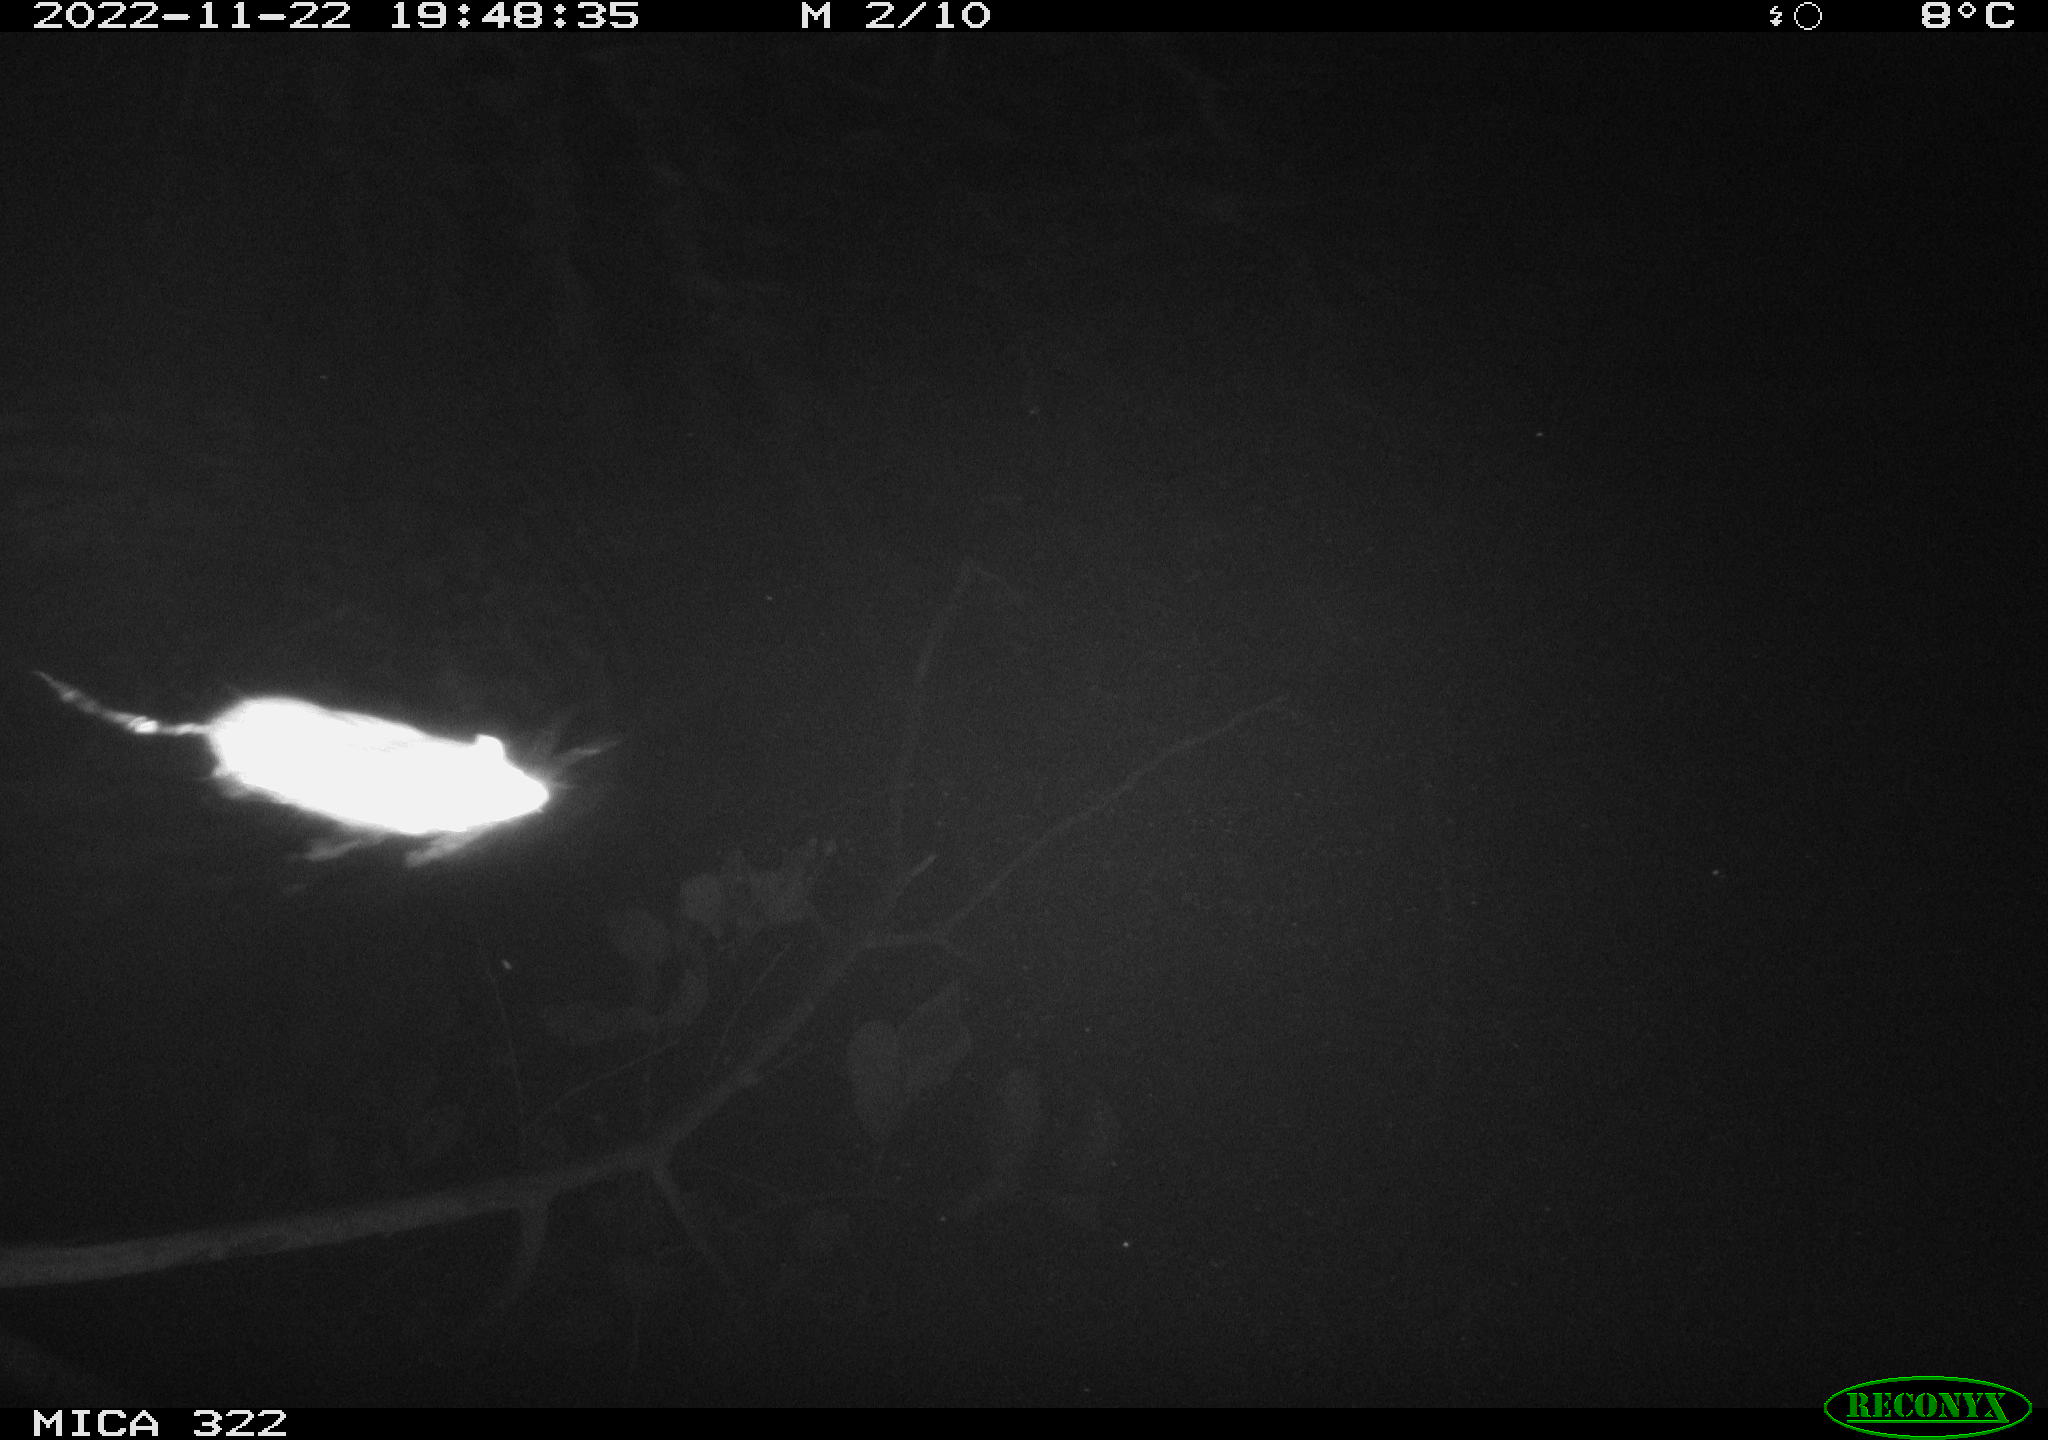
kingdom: Animalia
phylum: Chordata
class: Mammalia
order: Rodentia
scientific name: Rodentia
